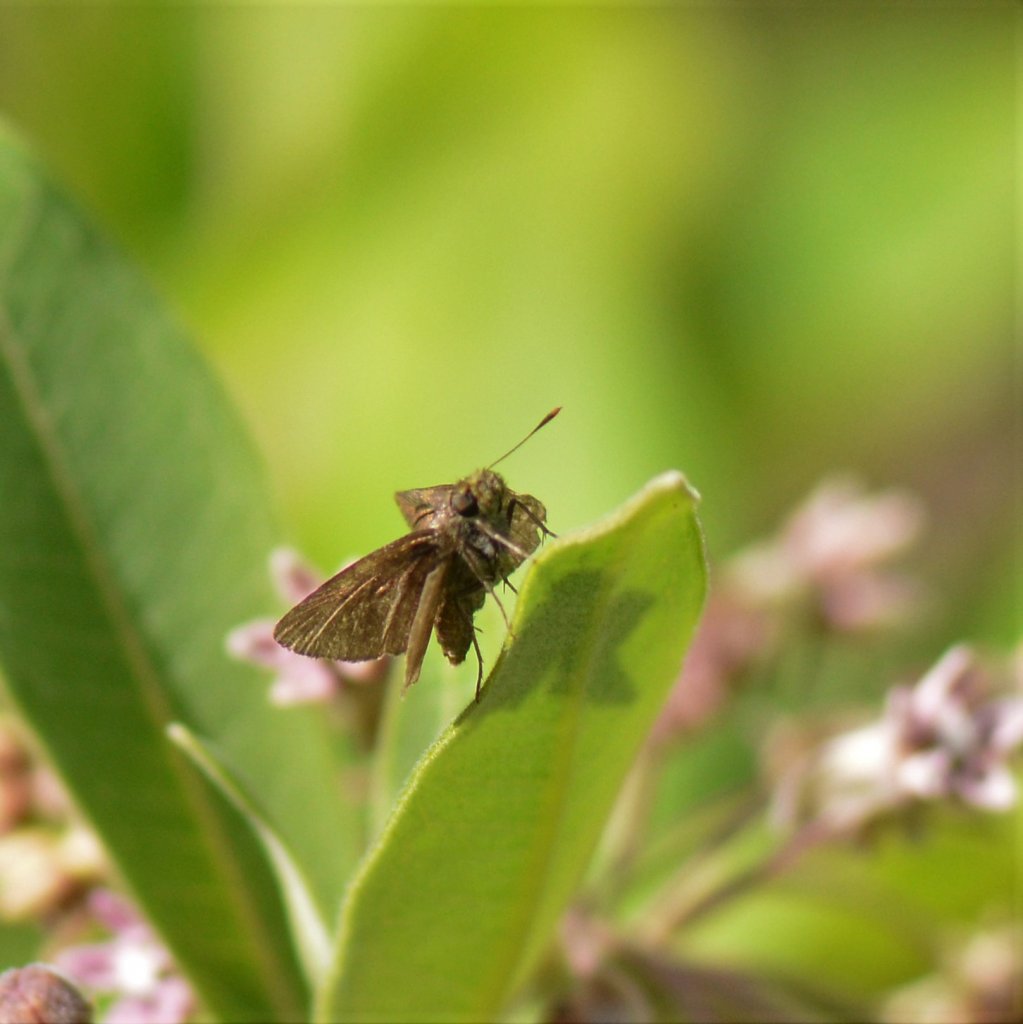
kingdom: Animalia
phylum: Arthropoda
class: Insecta
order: Lepidoptera
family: Hesperiidae
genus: Euphyes
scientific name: Euphyes vestris
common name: Dun Skipper
